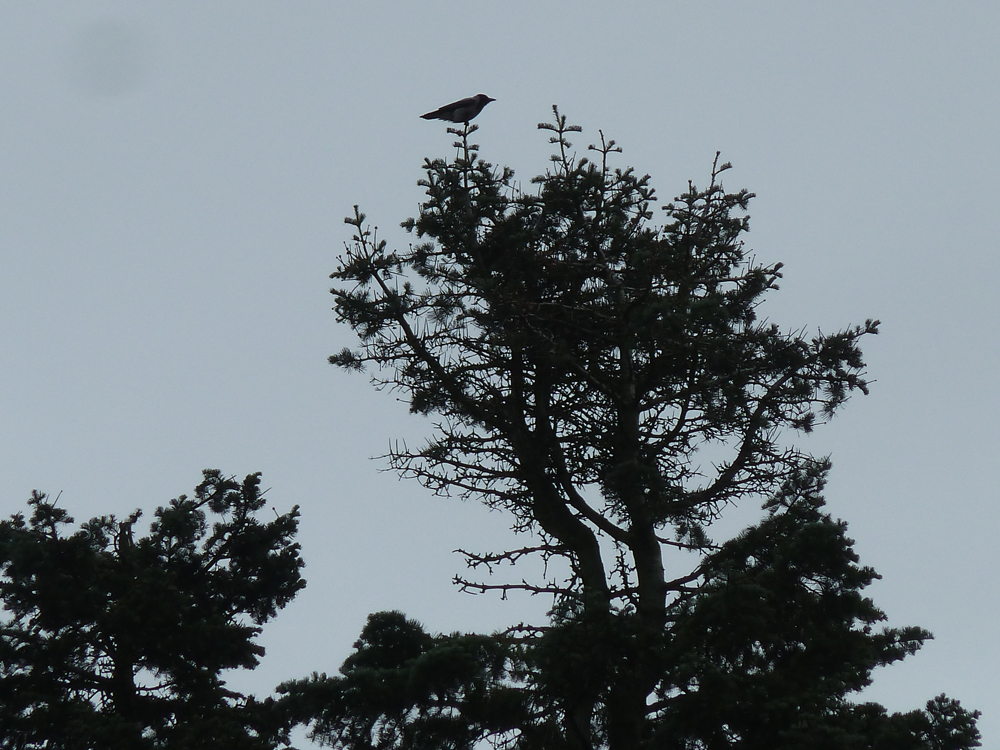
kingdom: Animalia
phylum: Chordata
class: Aves
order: Passeriformes
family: Corvidae
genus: Corvus
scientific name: Corvus cornix
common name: Hooded crow
